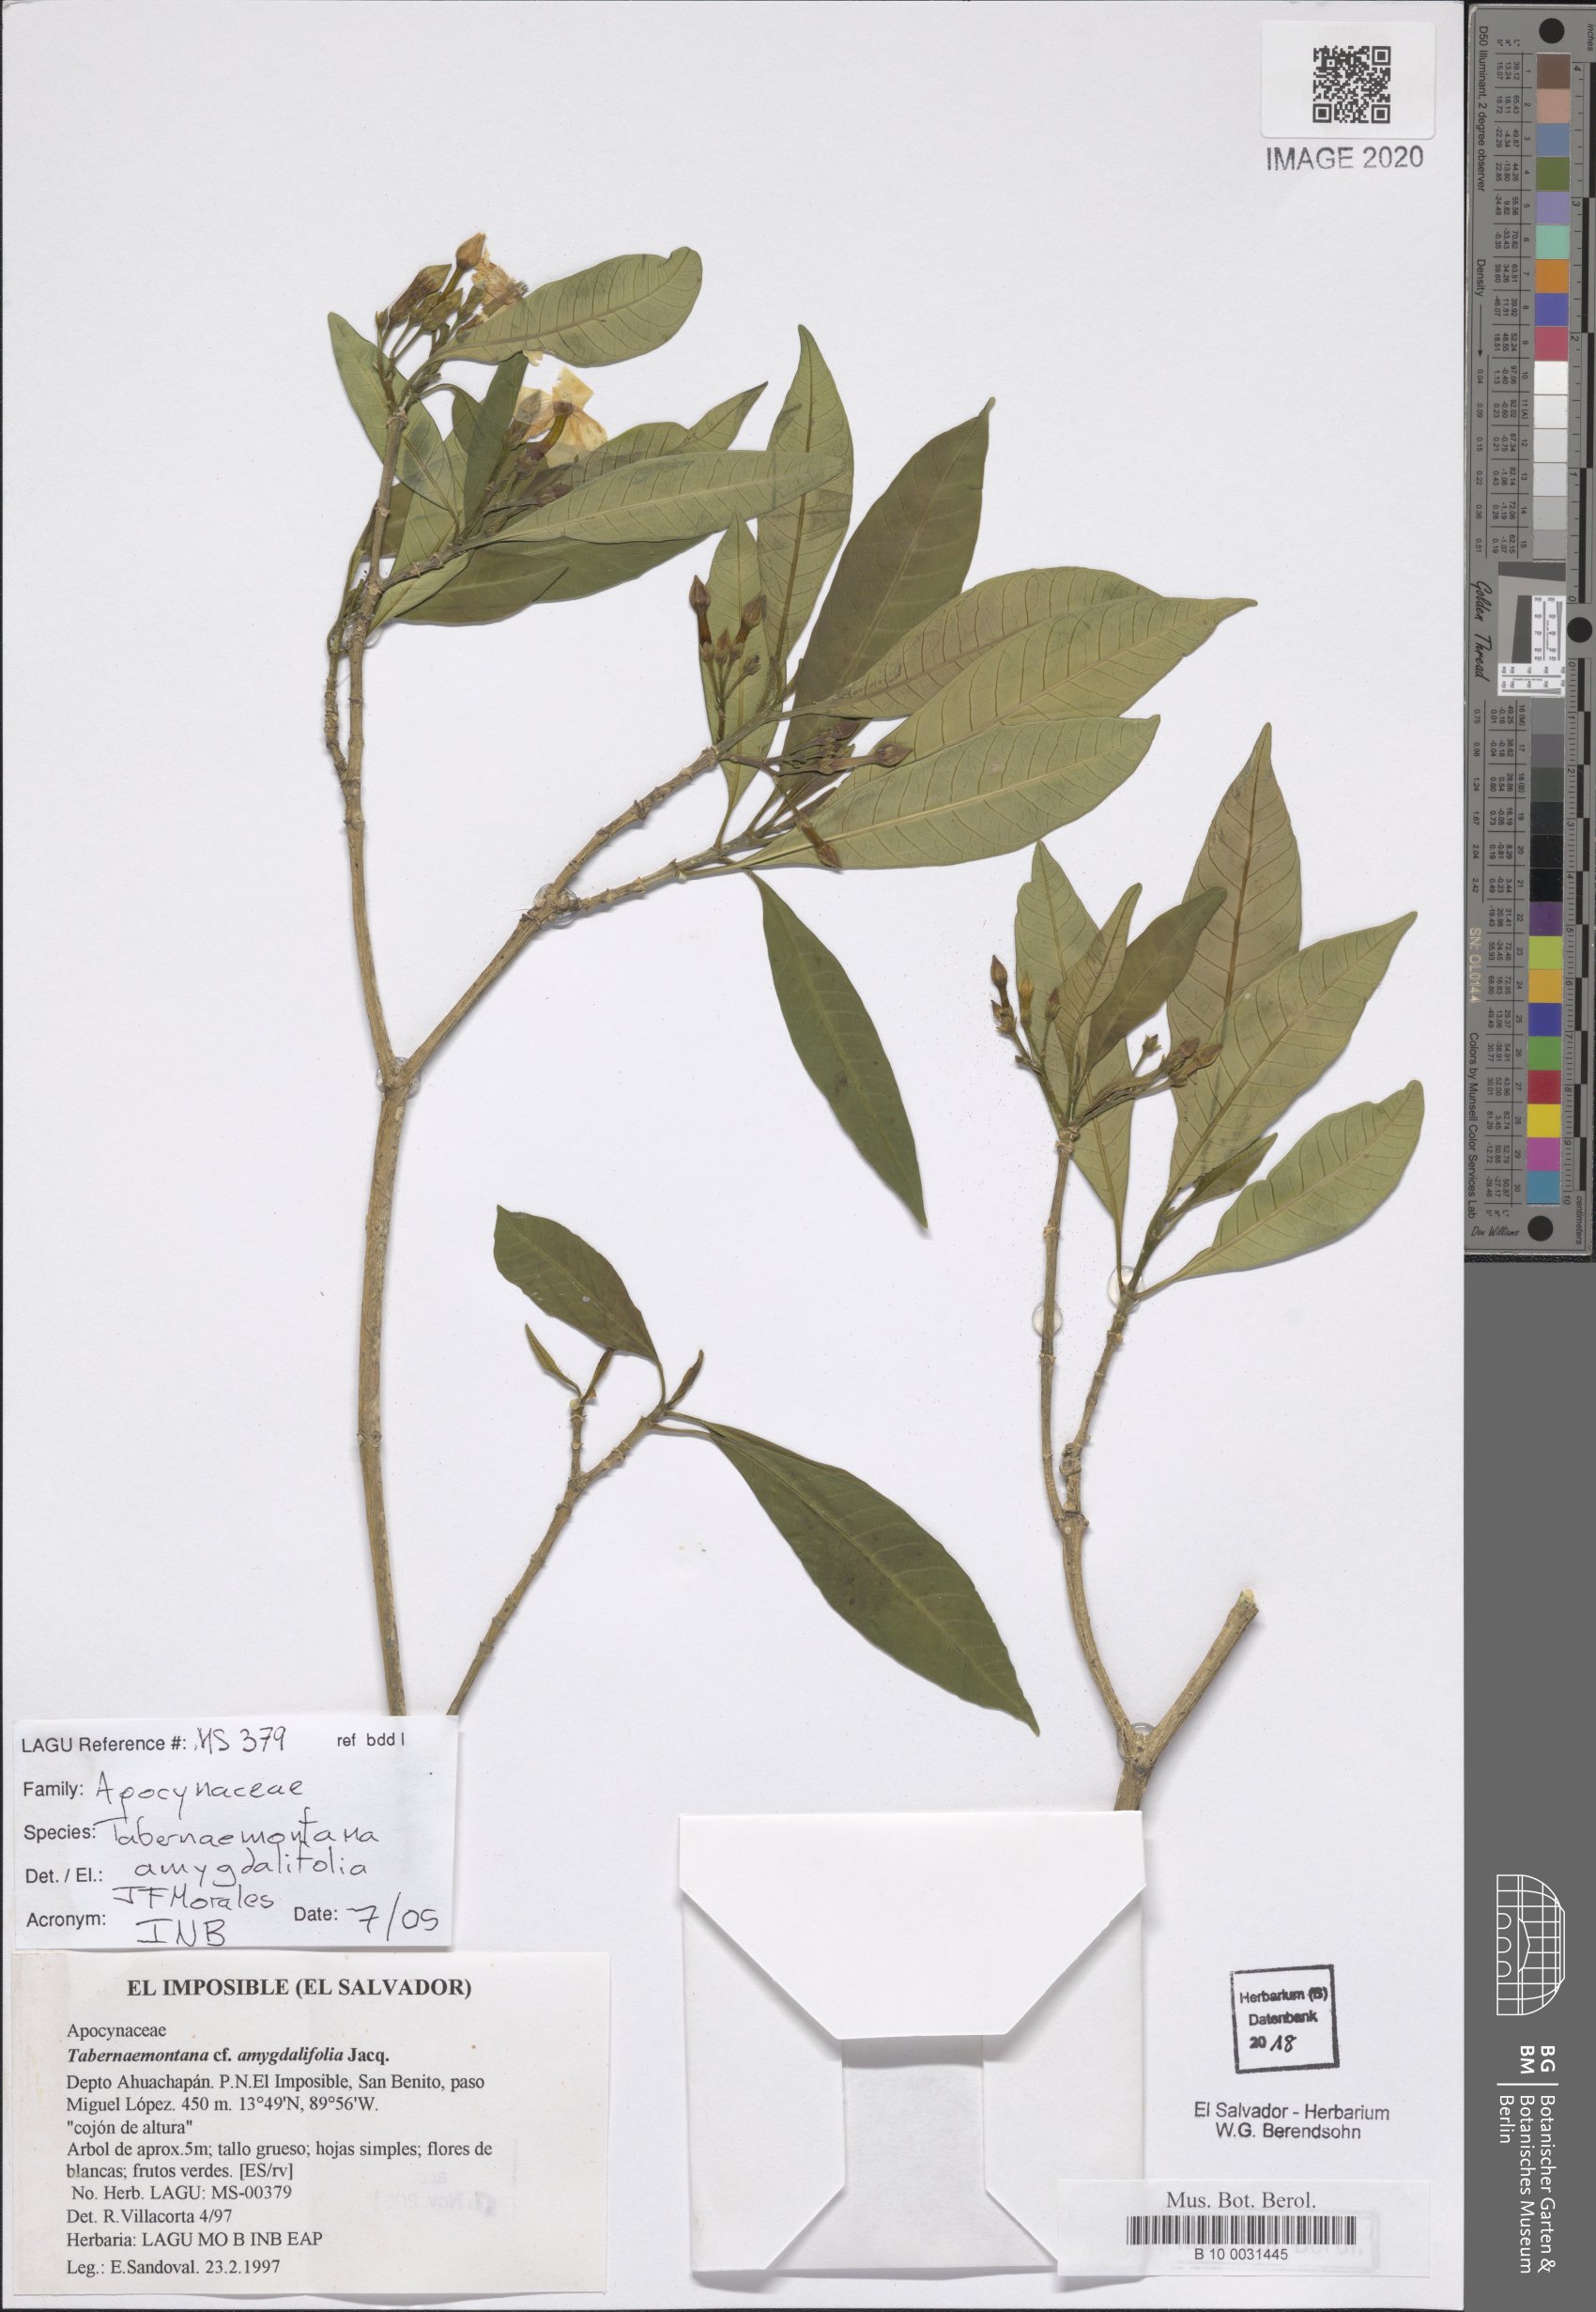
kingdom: Plantae
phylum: Tracheophyta
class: Magnoliopsida
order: Gentianales
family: Apocynaceae
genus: Tabernaemontana
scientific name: Tabernaemontana amygdalifolia
